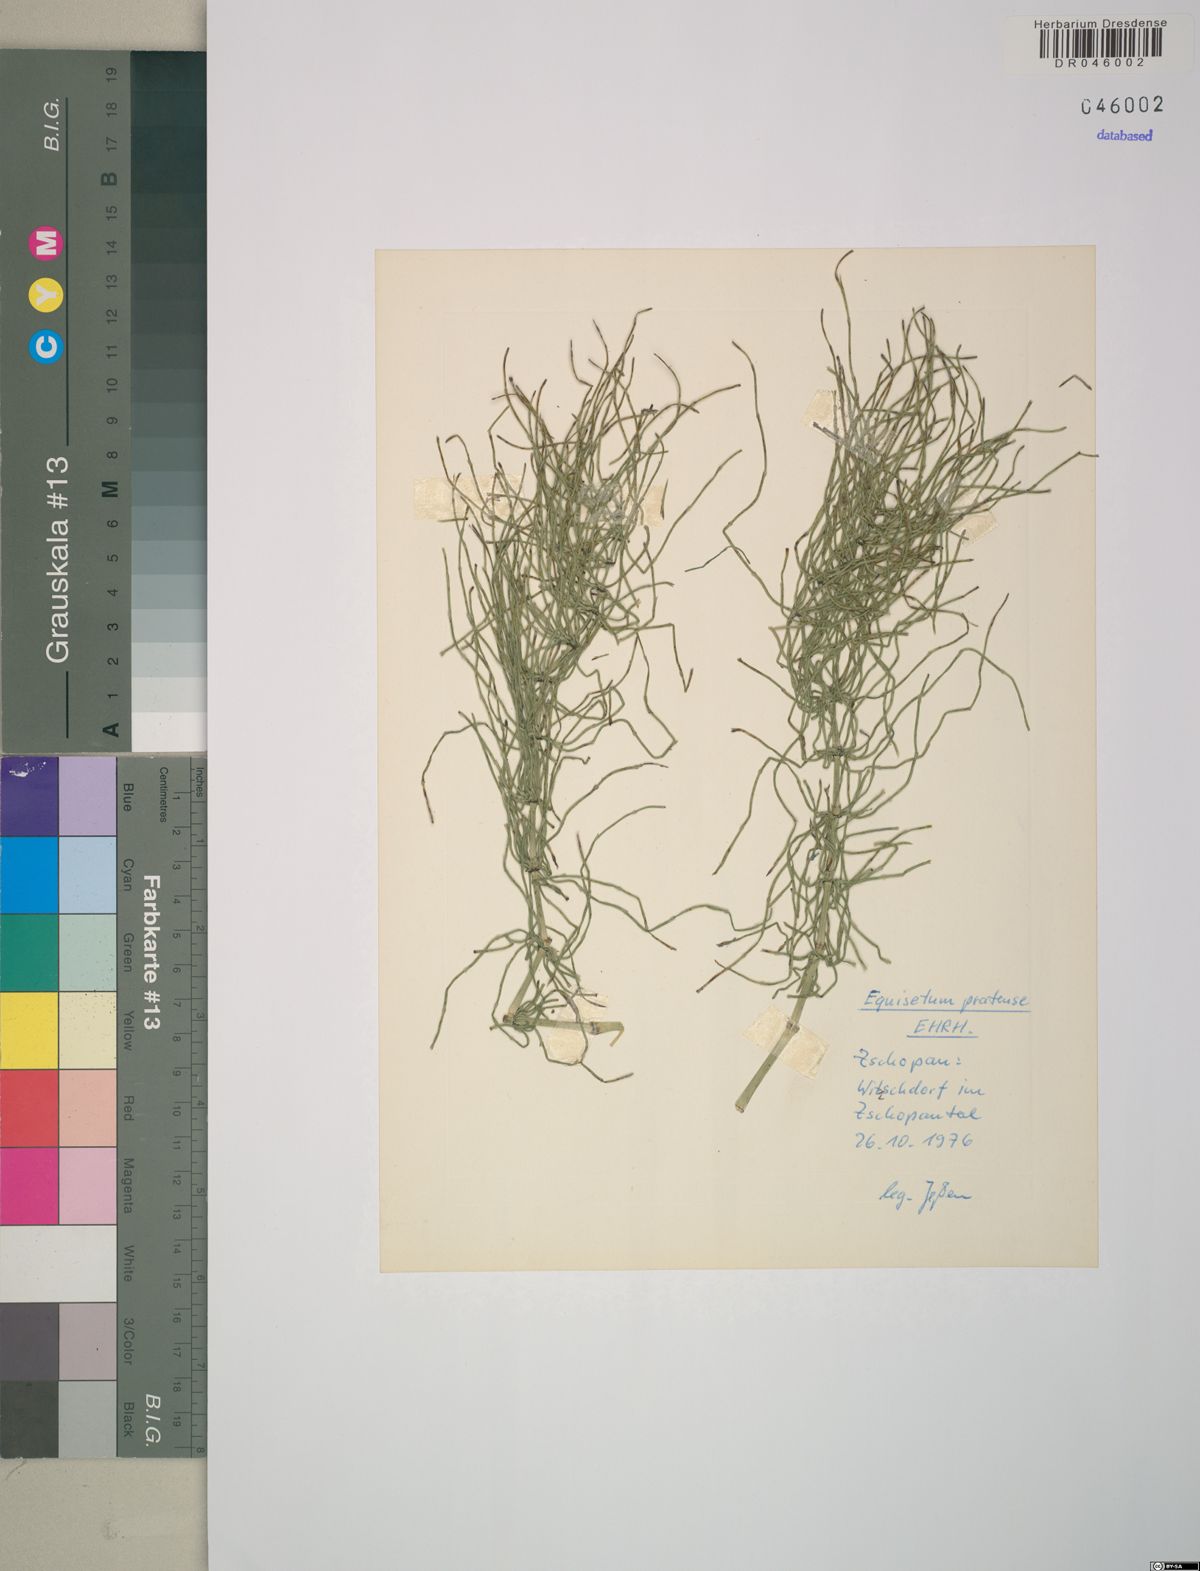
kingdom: Plantae
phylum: Tracheophyta
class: Polypodiopsida
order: Equisetales
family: Equisetaceae
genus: Equisetum
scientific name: Equisetum pratense
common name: Meadow horsetail
